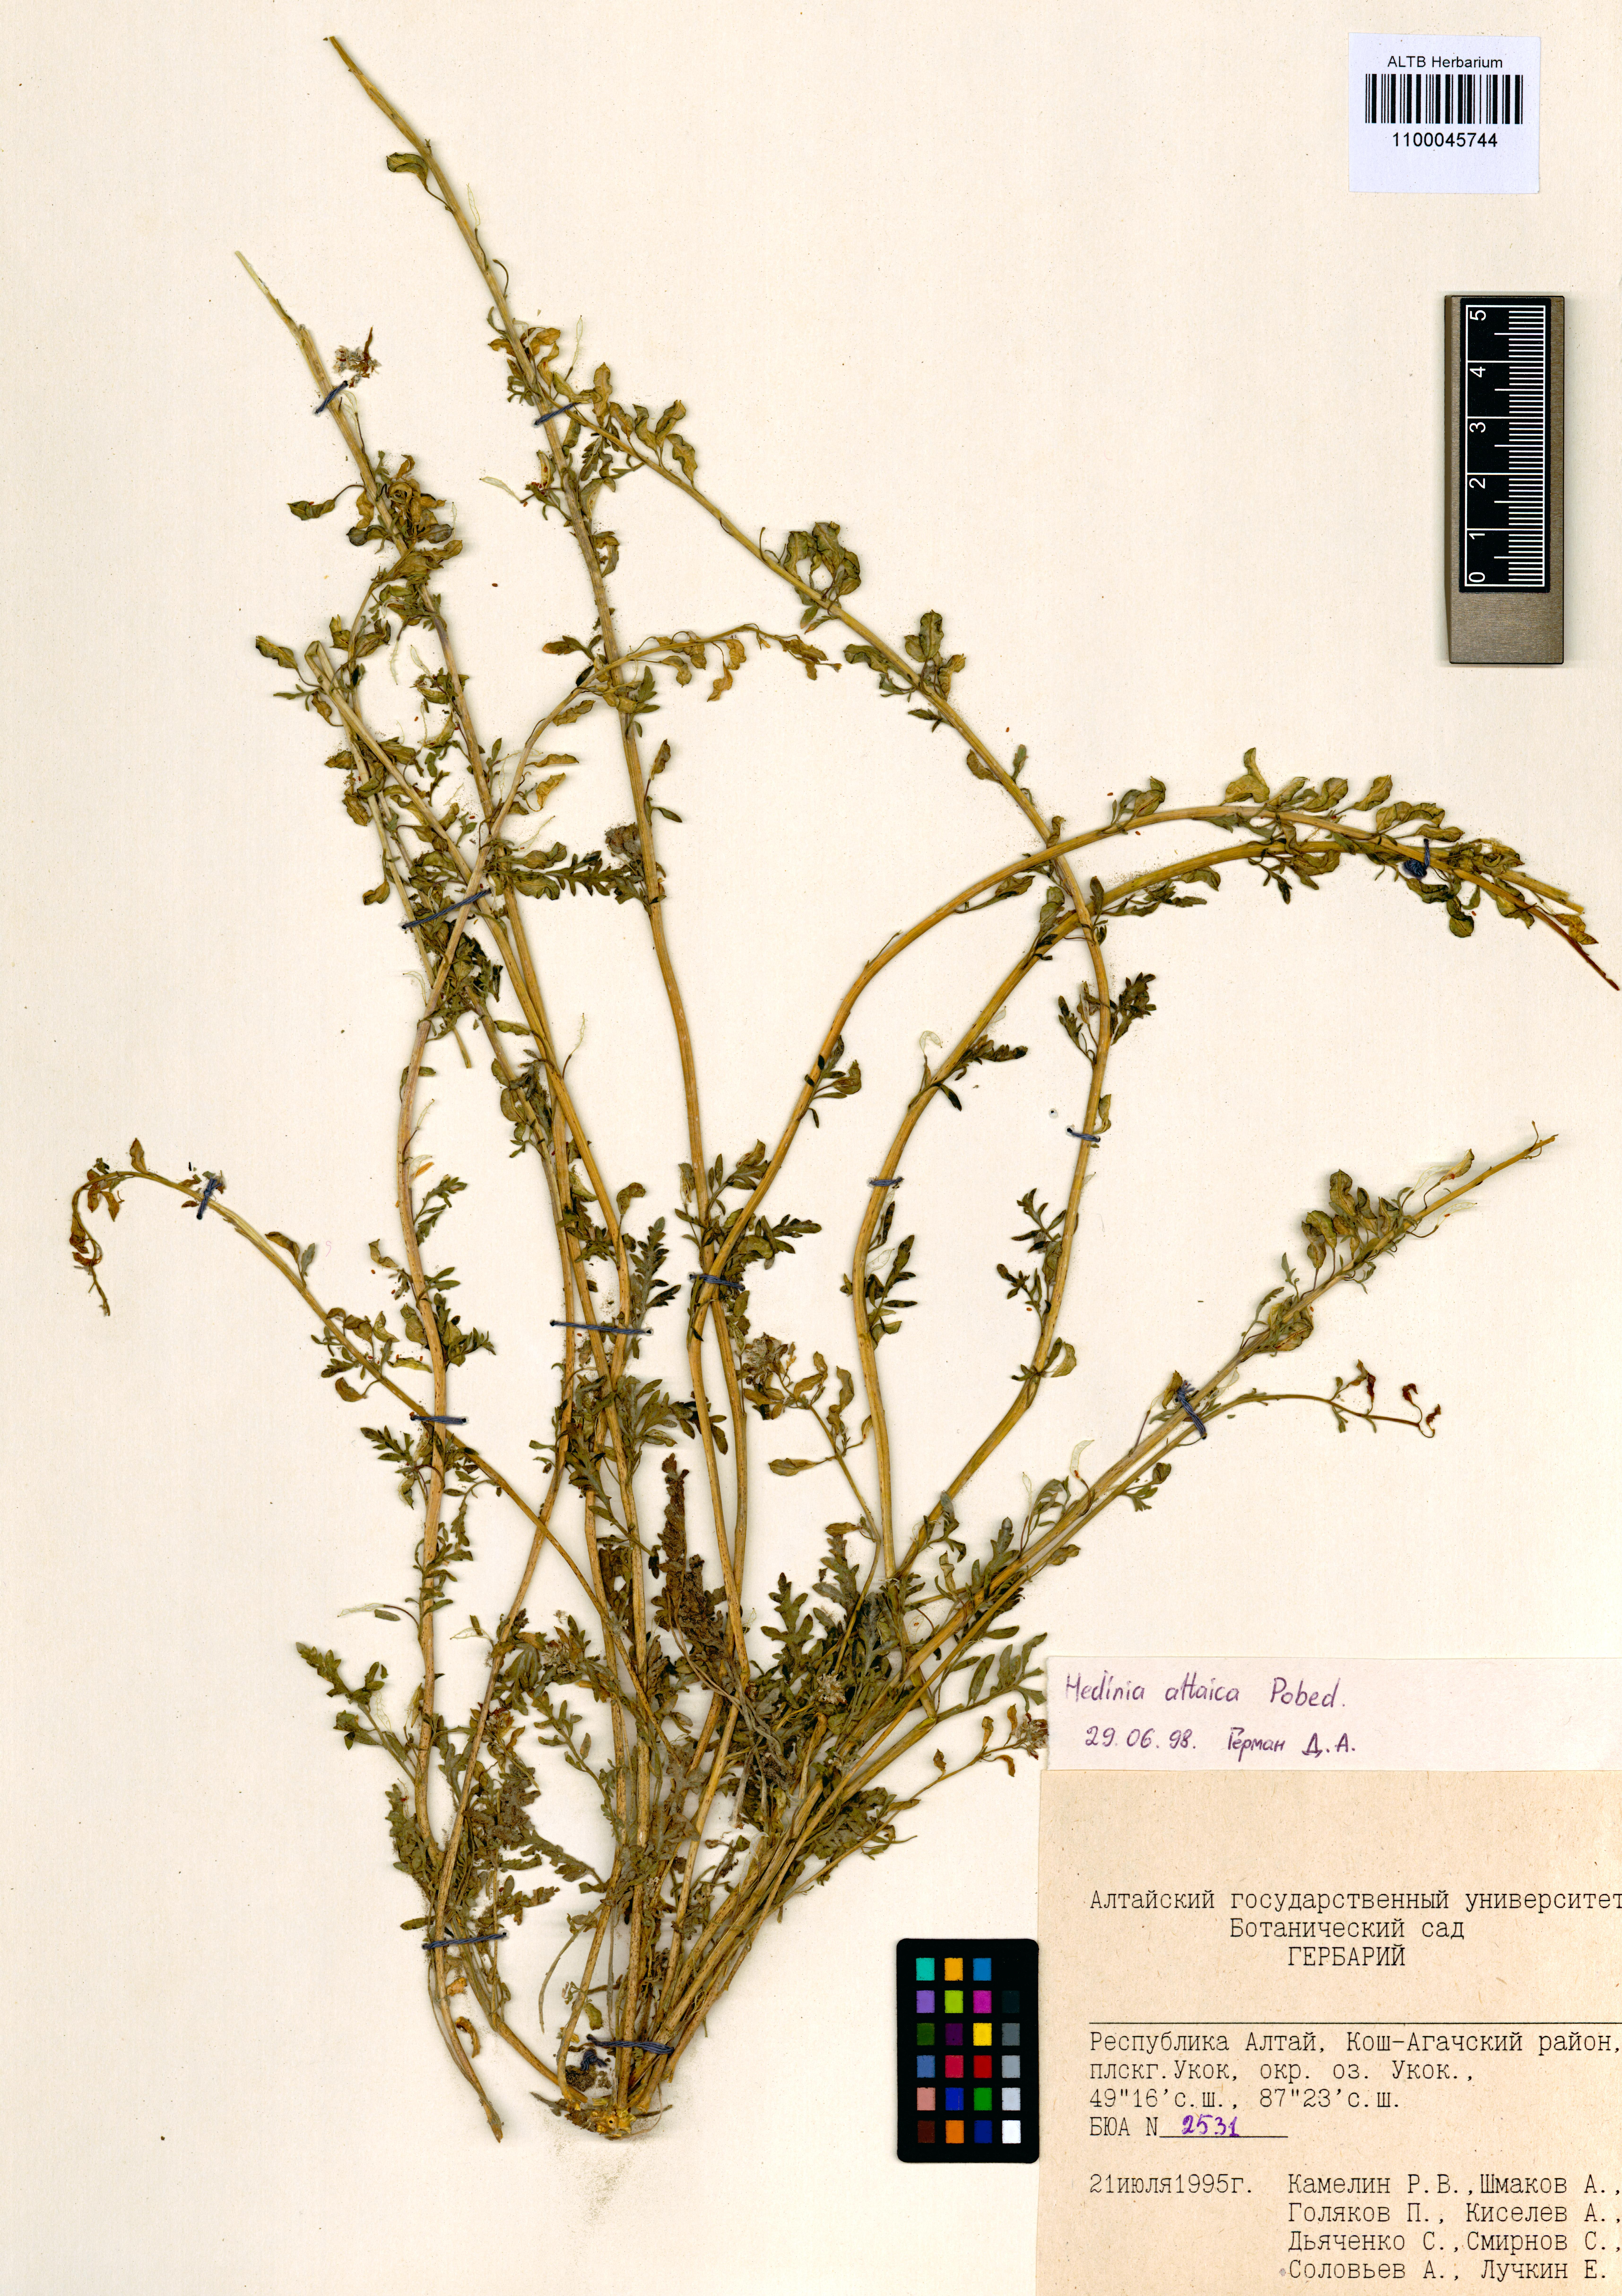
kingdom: Plantae
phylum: Tracheophyta
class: Magnoliopsida
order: Brassicales
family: Brassicaceae
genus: Smelowskia
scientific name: Smelowskia altaica
